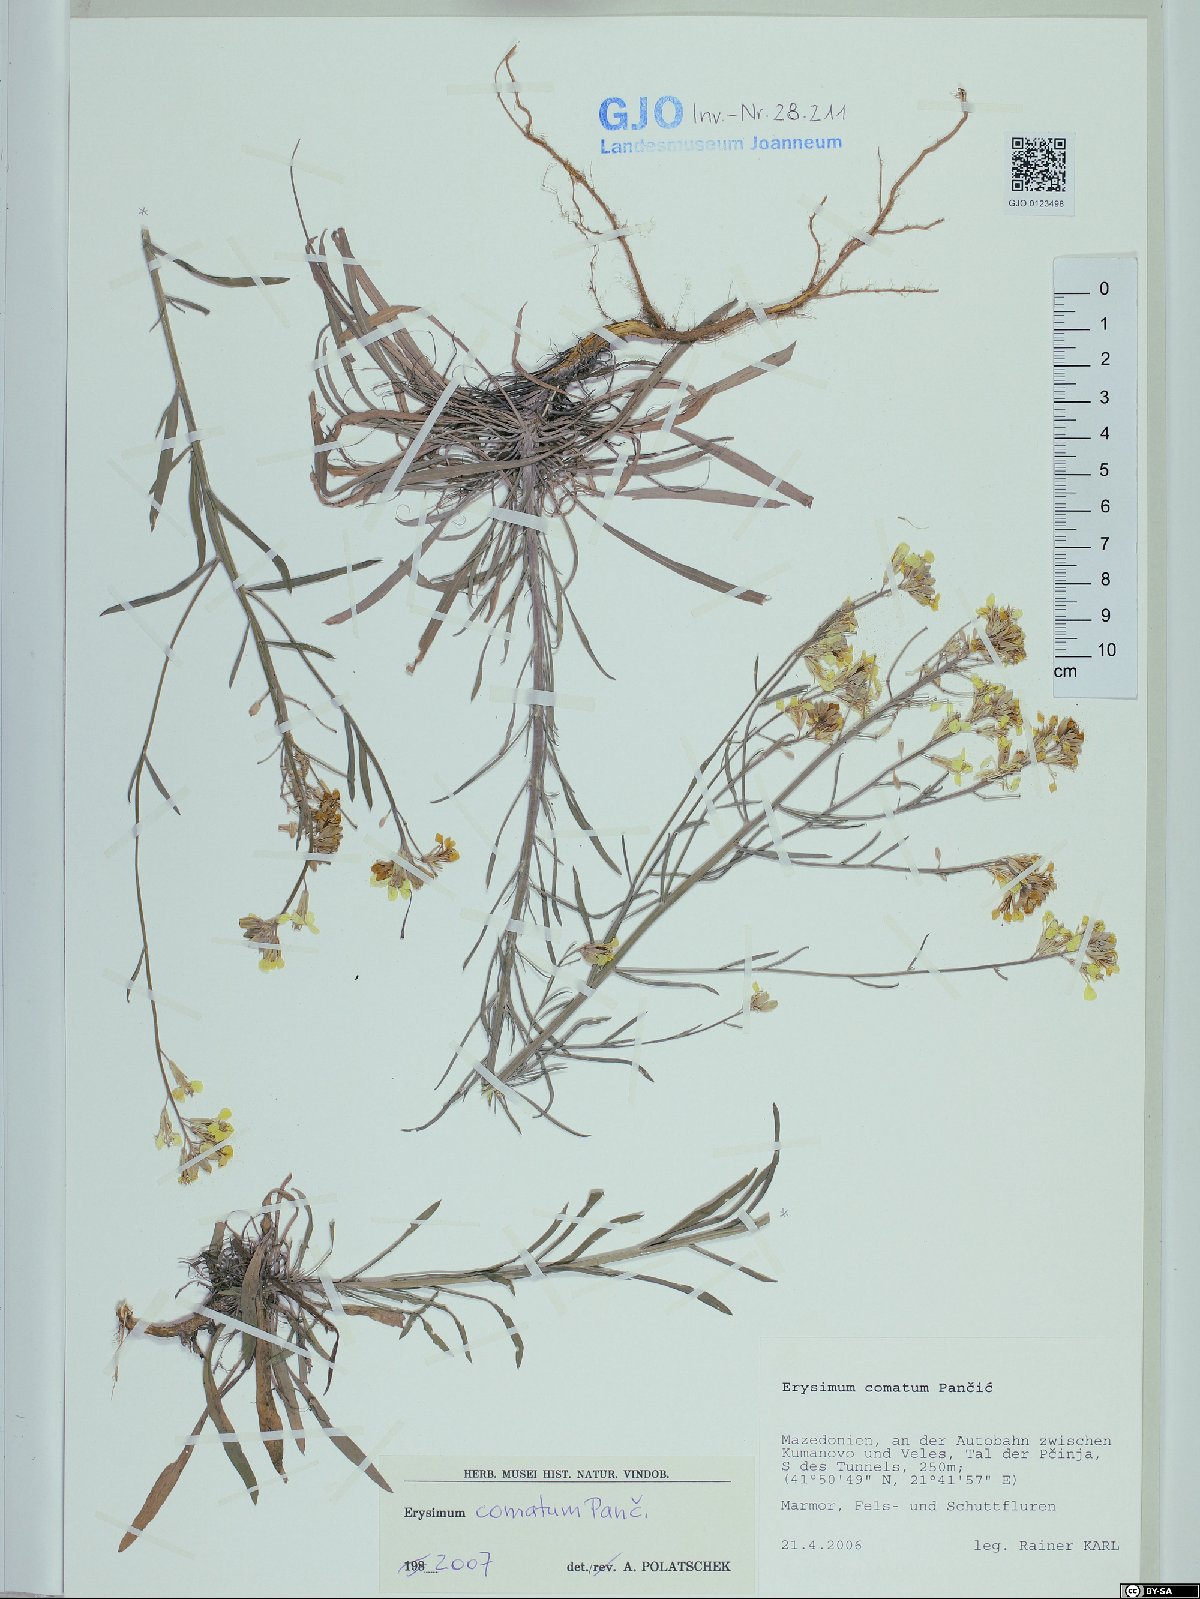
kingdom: Plantae
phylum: Tracheophyta
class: Magnoliopsida
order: Brassicales
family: Brassicaceae
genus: Erysimum
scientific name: Erysimum comatum
